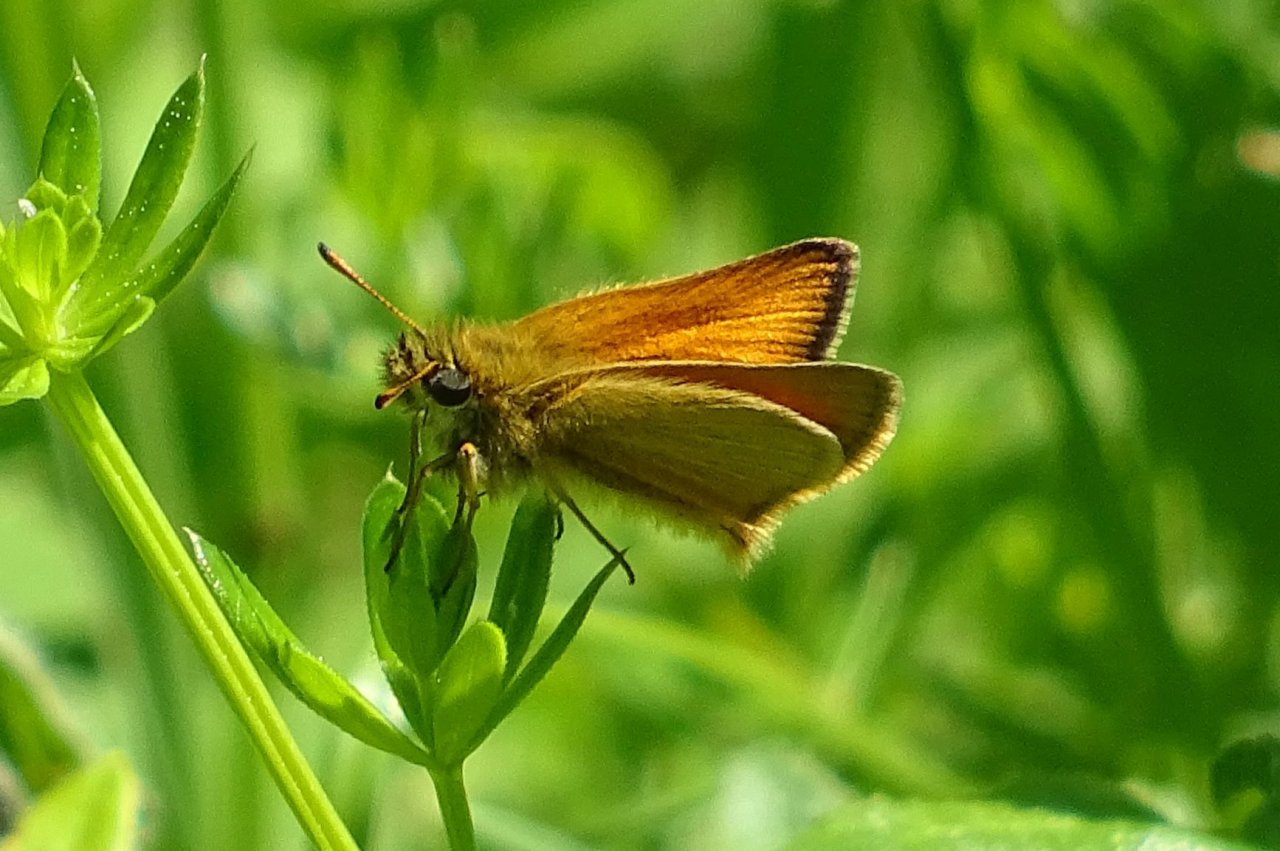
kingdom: Animalia
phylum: Arthropoda
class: Insecta
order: Lepidoptera
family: Hesperiidae
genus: Thymelicus
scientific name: Thymelicus lineola
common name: European Skipper
